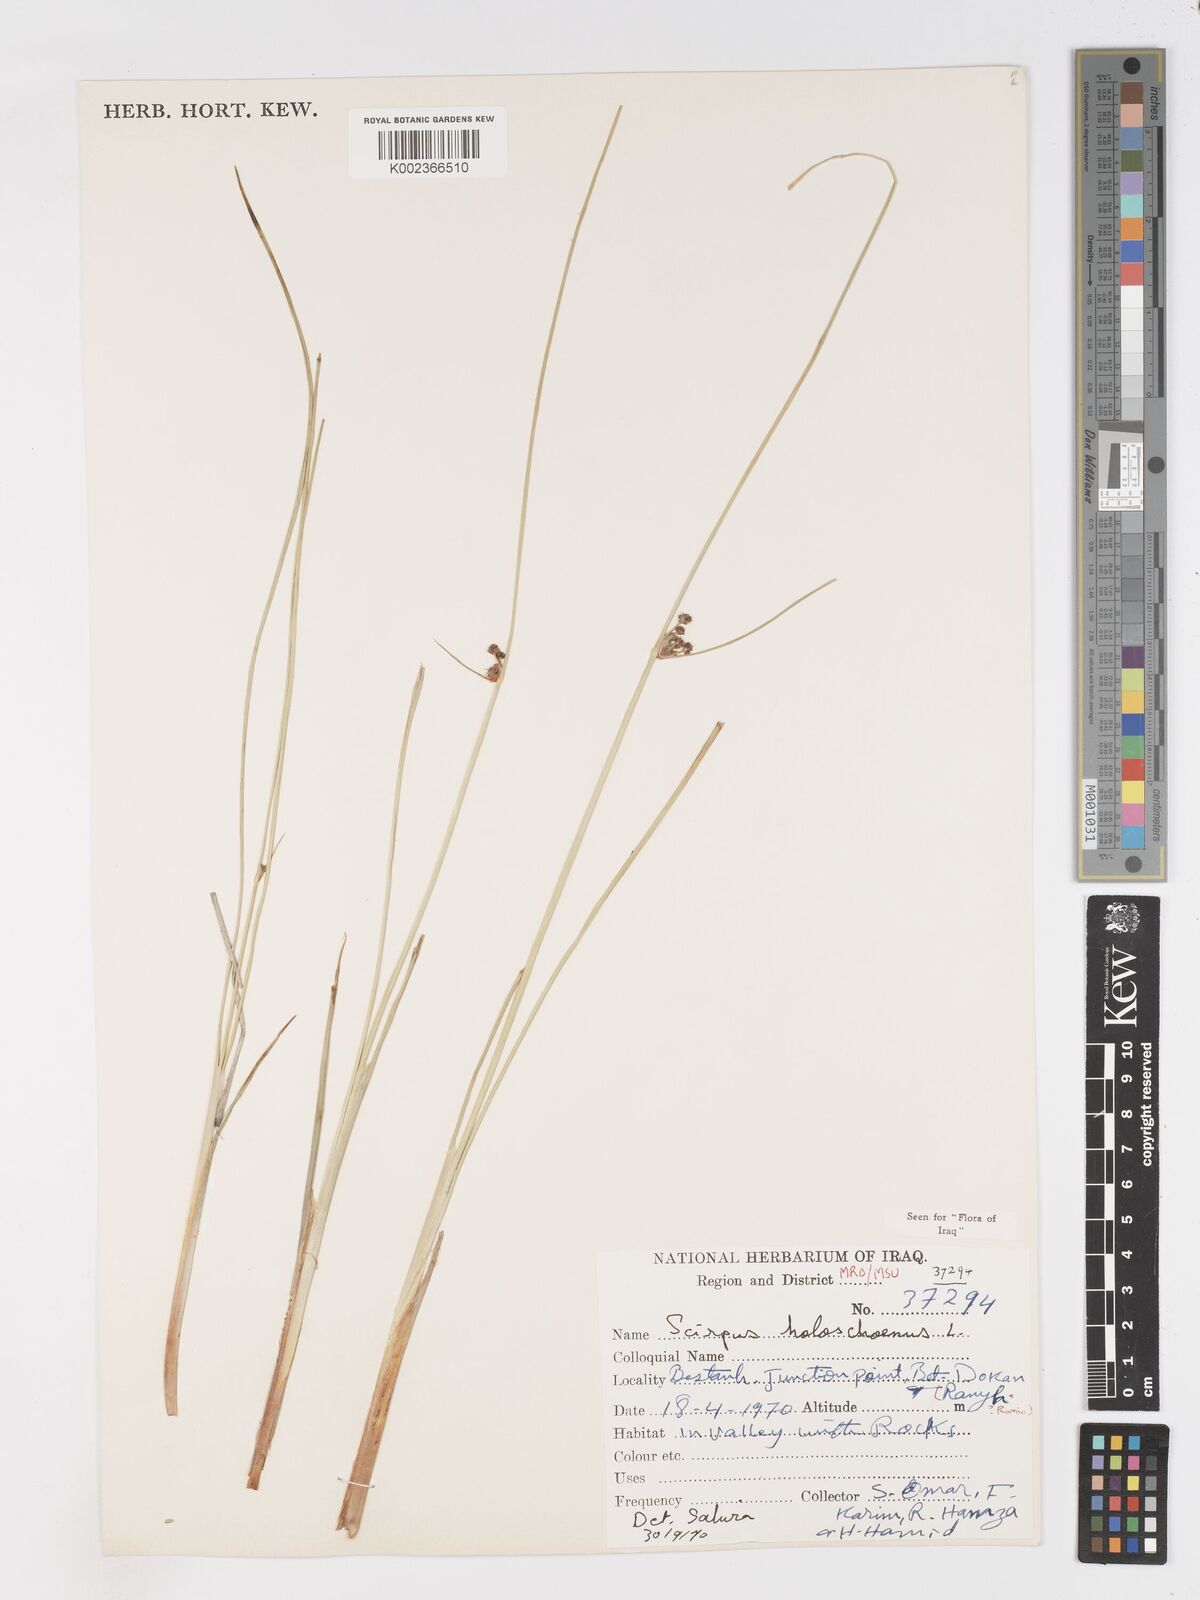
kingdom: Plantae
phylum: Tracheophyta
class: Liliopsida
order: Poales
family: Cyperaceae
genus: Scirpoides
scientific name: Scirpoides holoschoenus
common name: Round-headed club-rush
